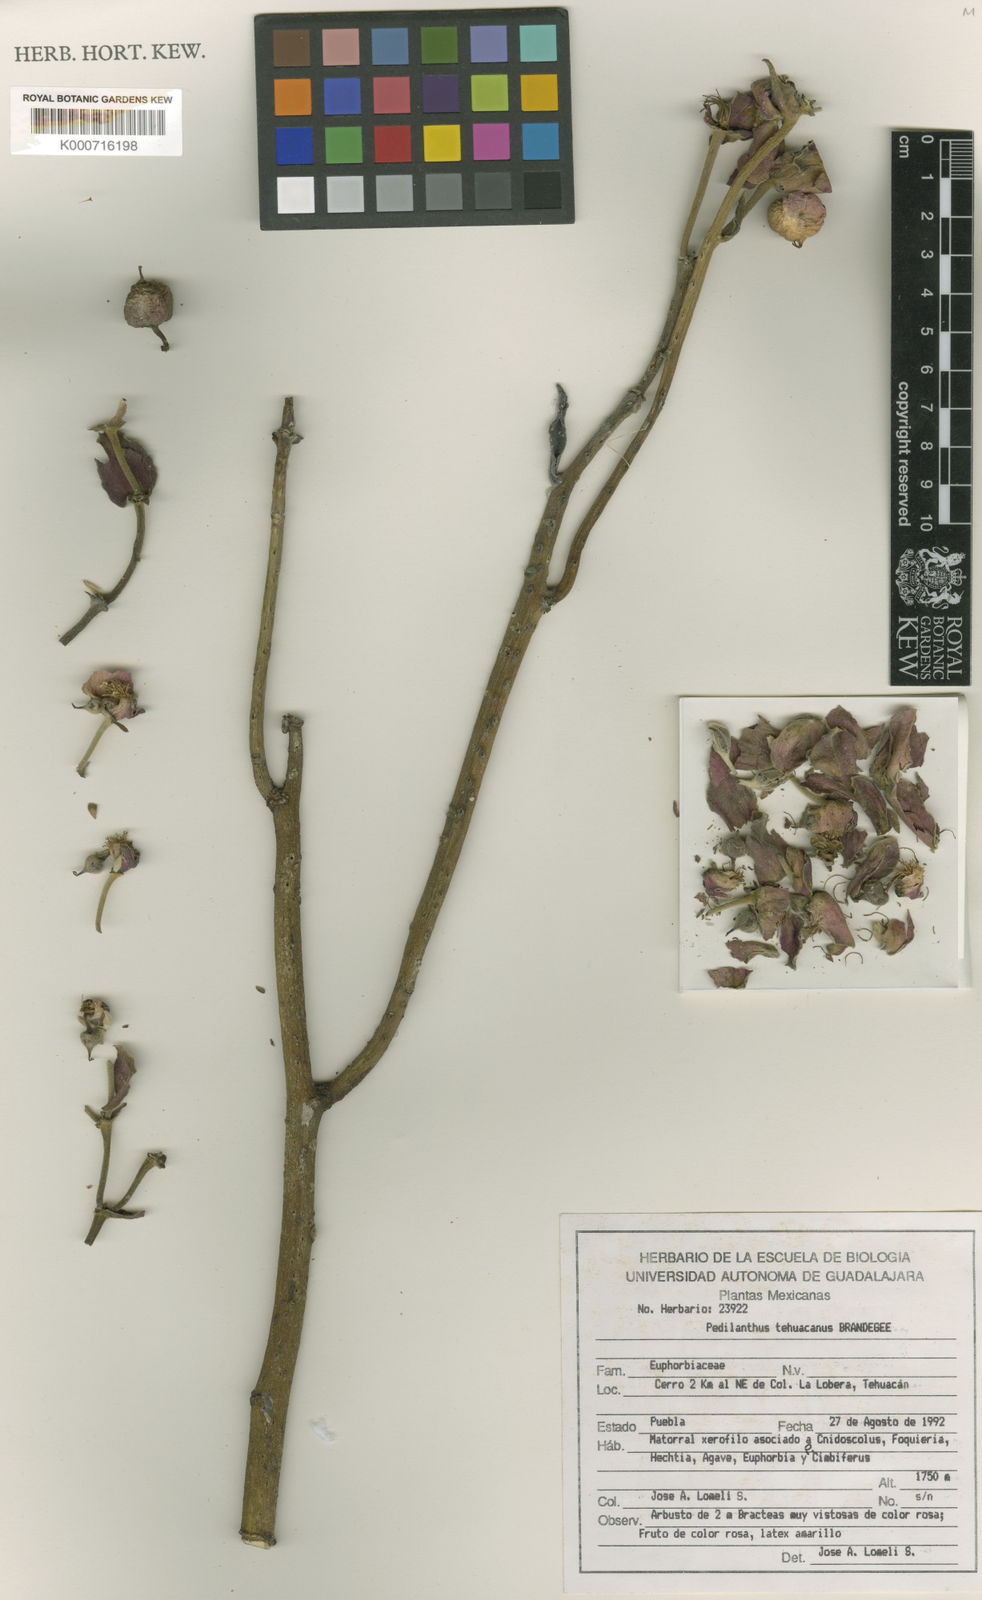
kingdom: Plantae
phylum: Tracheophyta
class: Magnoliopsida
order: Malpighiales
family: Euphorbiaceae
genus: Euphorbia
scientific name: Euphorbia tehuacana
